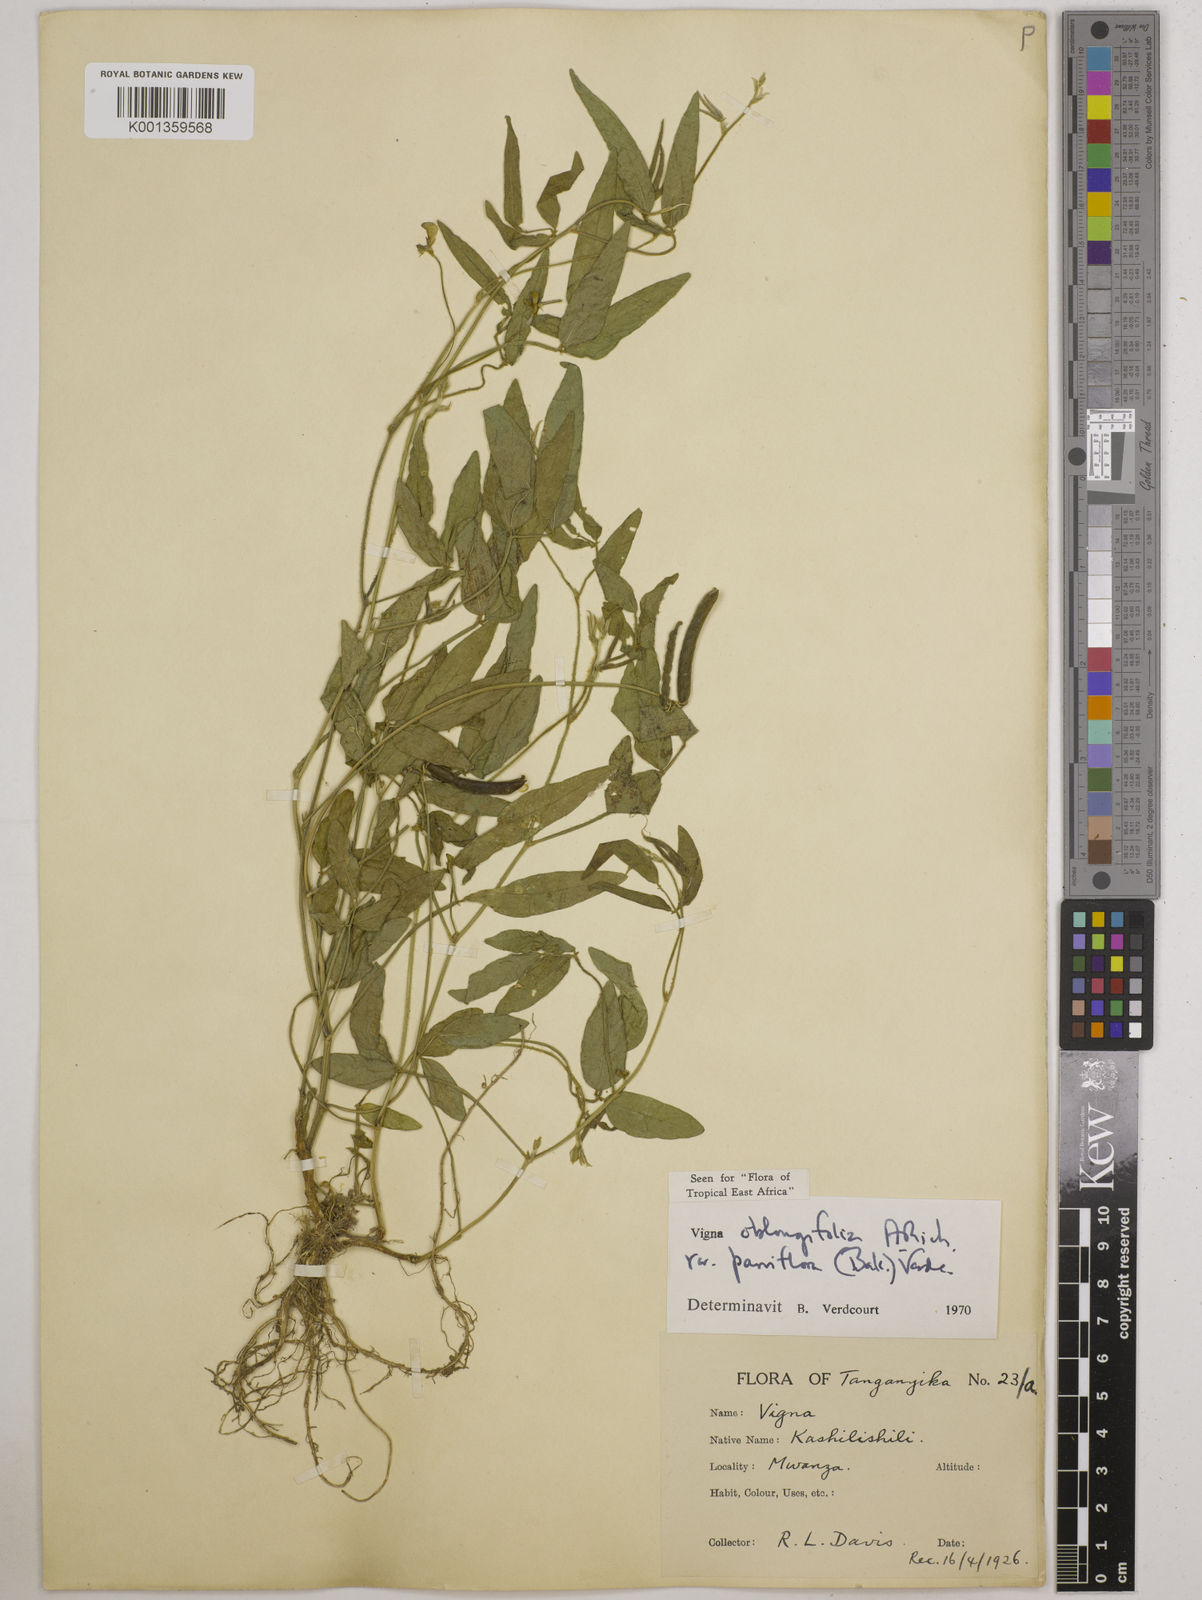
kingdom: Plantae
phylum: Tracheophyta
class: Magnoliopsida
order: Fabales
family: Fabaceae
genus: Vigna
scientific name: Vigna
